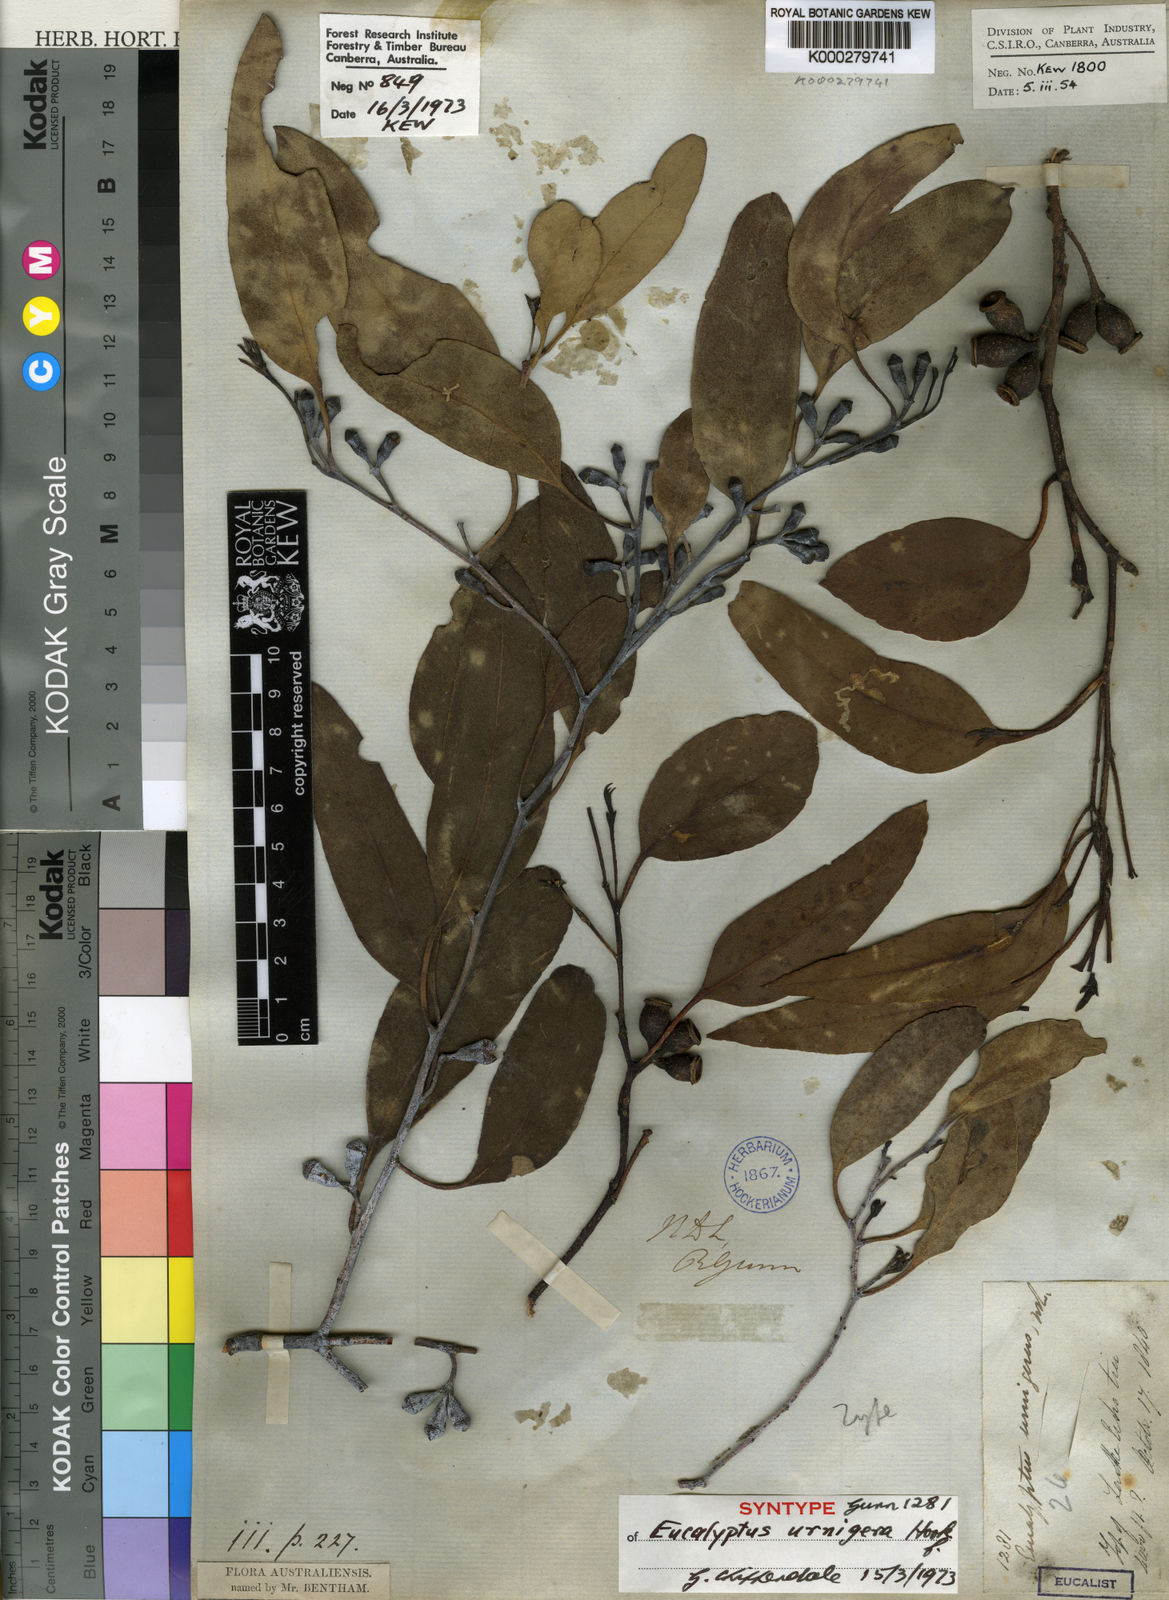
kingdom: Plantae
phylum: Tracheophyta
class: Magnoliopsida
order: Myrtales
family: Myrtaceae
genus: Eucalyptus
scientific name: Eucalyptus urnigera
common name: Urn-fruited gum
